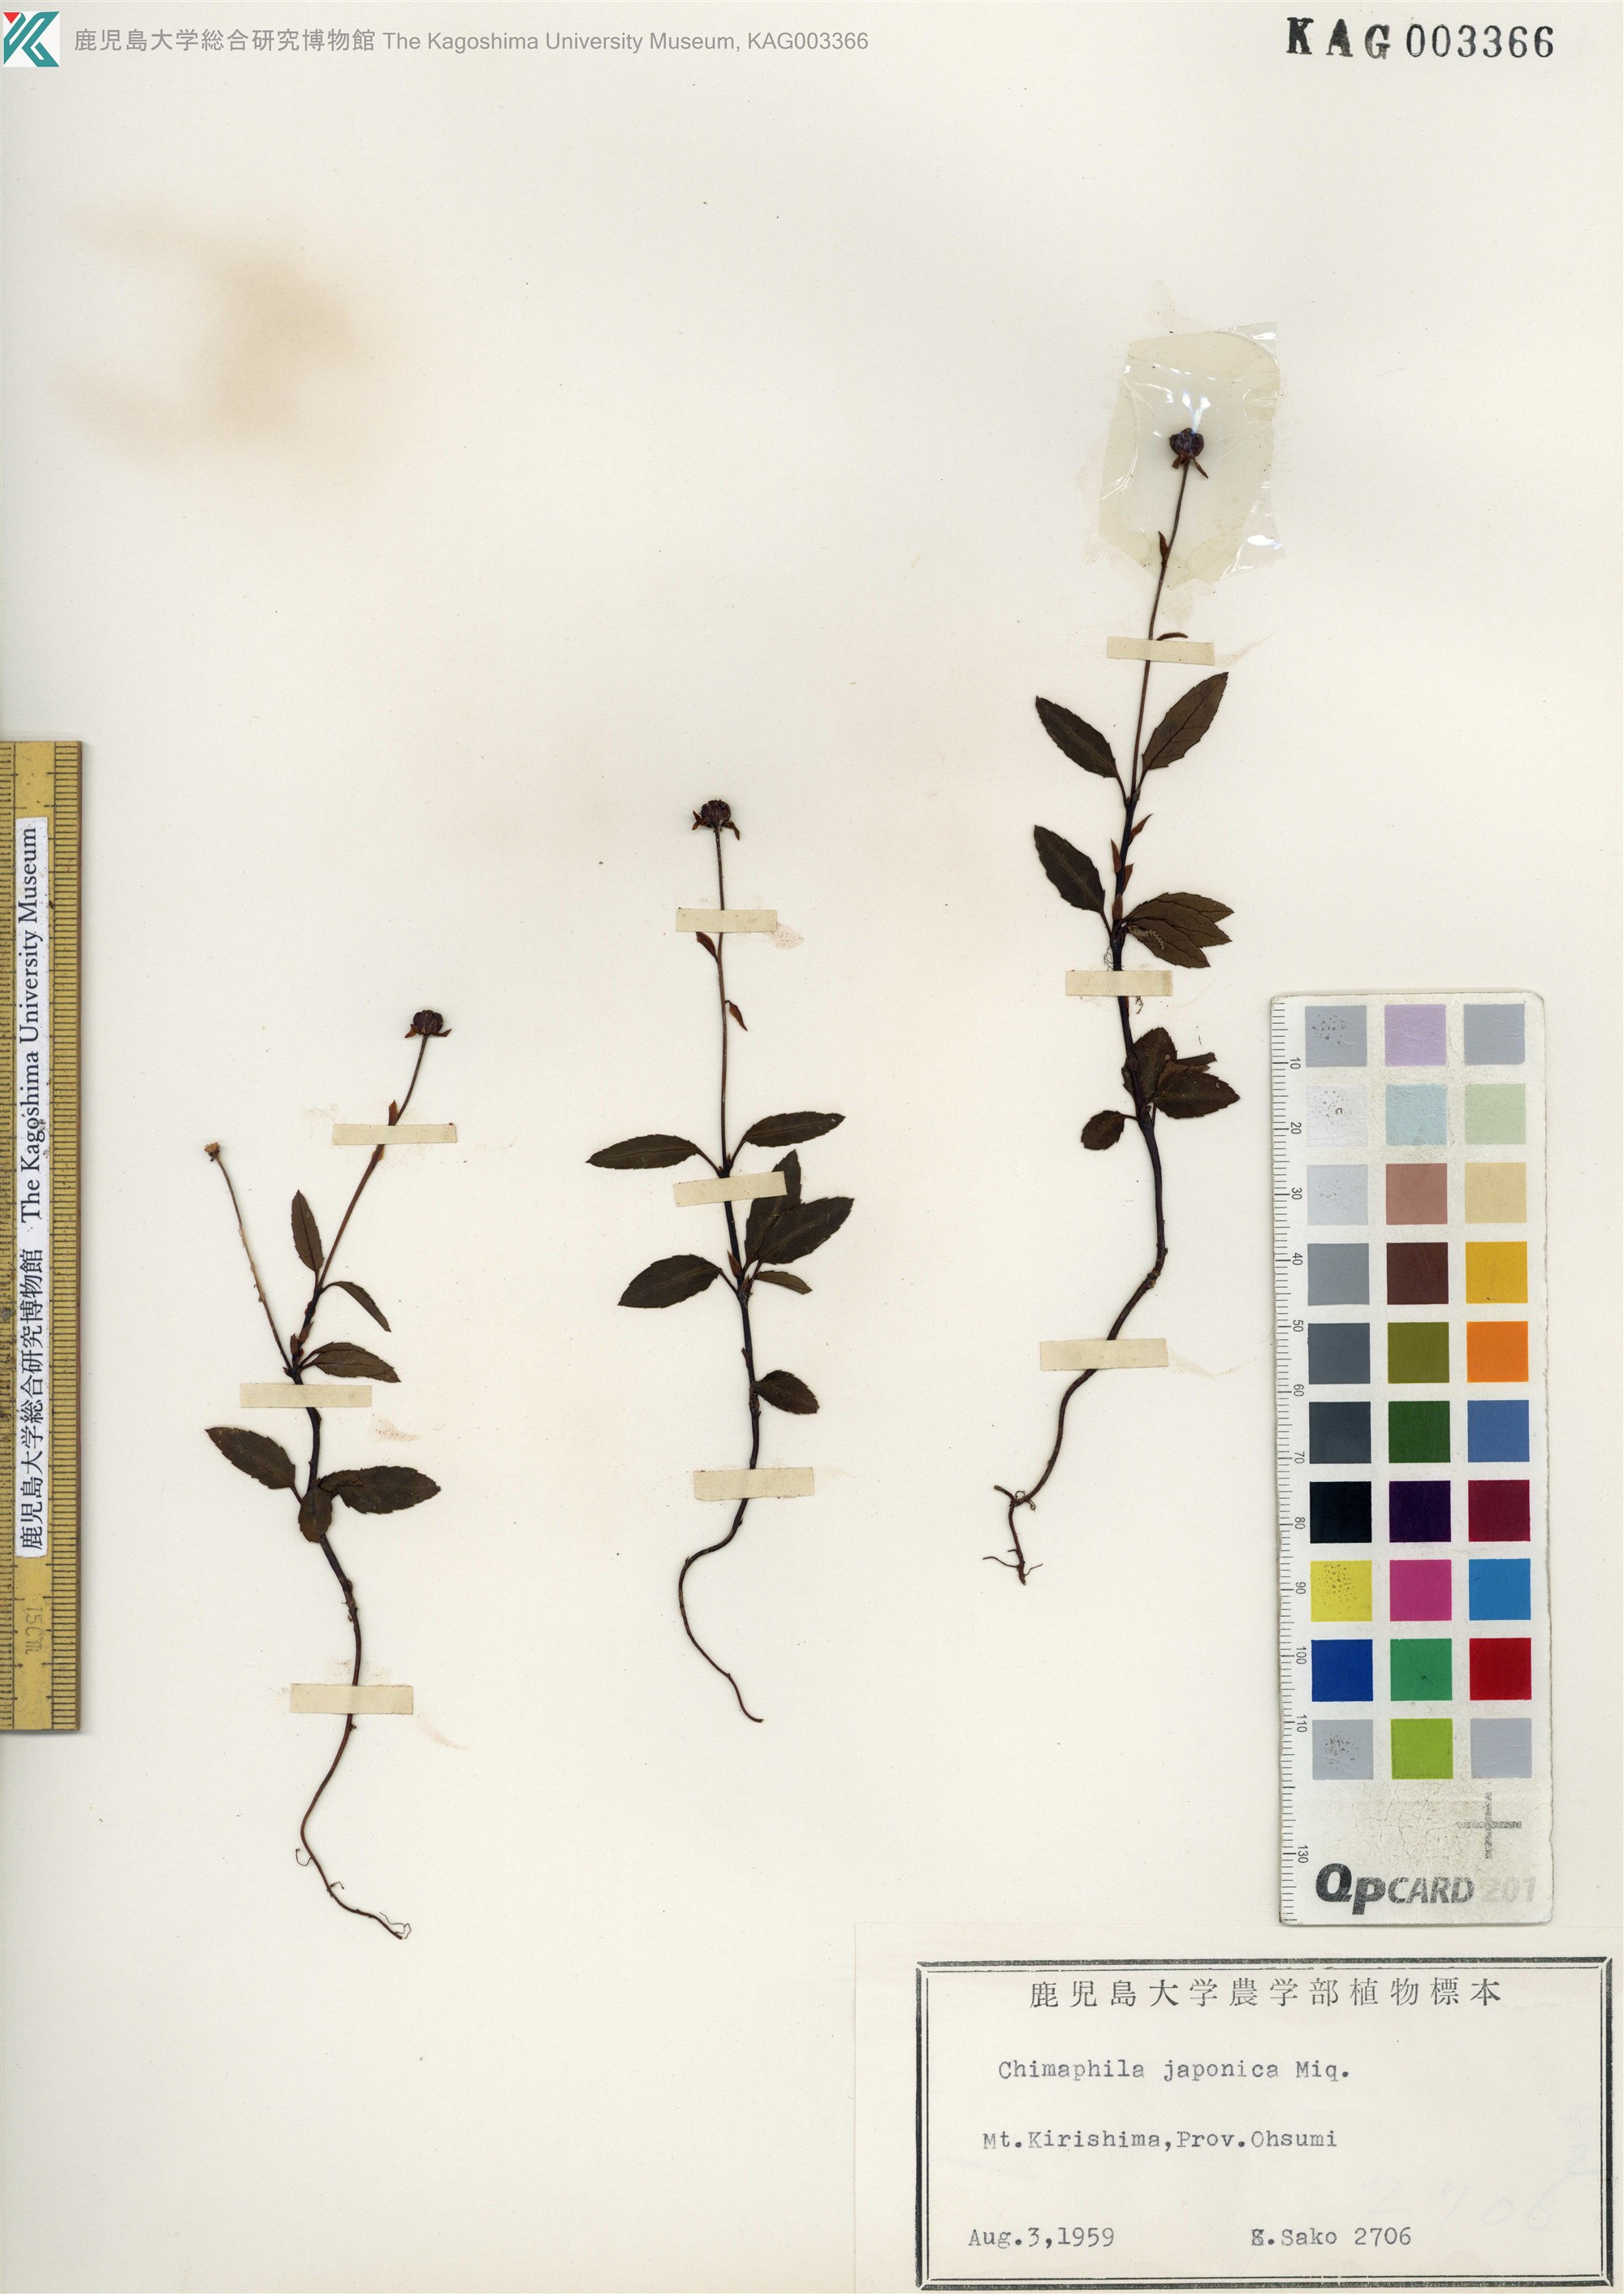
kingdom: Plantae
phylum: Tracheophyta
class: Magnoliopsida
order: Ericales
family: Ericaceae
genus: Chimaphila
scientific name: Chimaphila japonica
